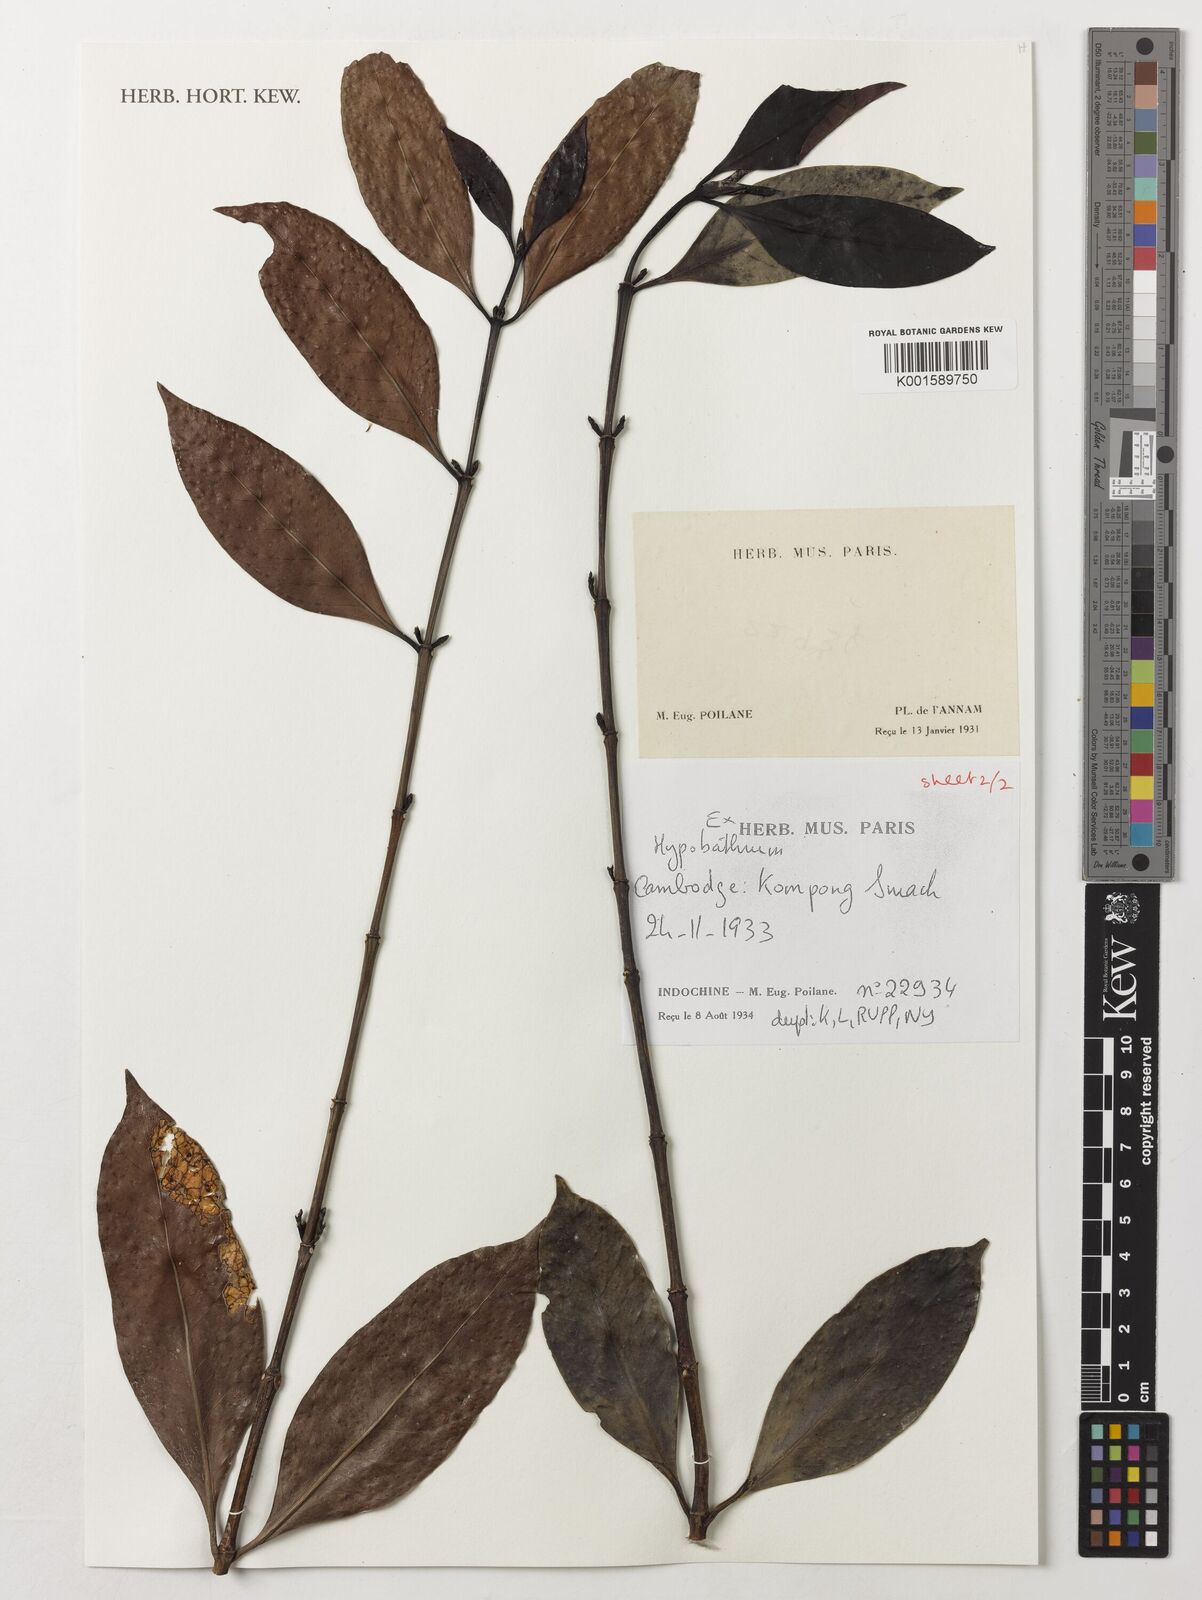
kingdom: Plantae
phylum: Tracheophyta
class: Magnoliopsida
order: Gentianales
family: Rubiaceae
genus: Hypobathrum
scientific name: Hypobathrum
